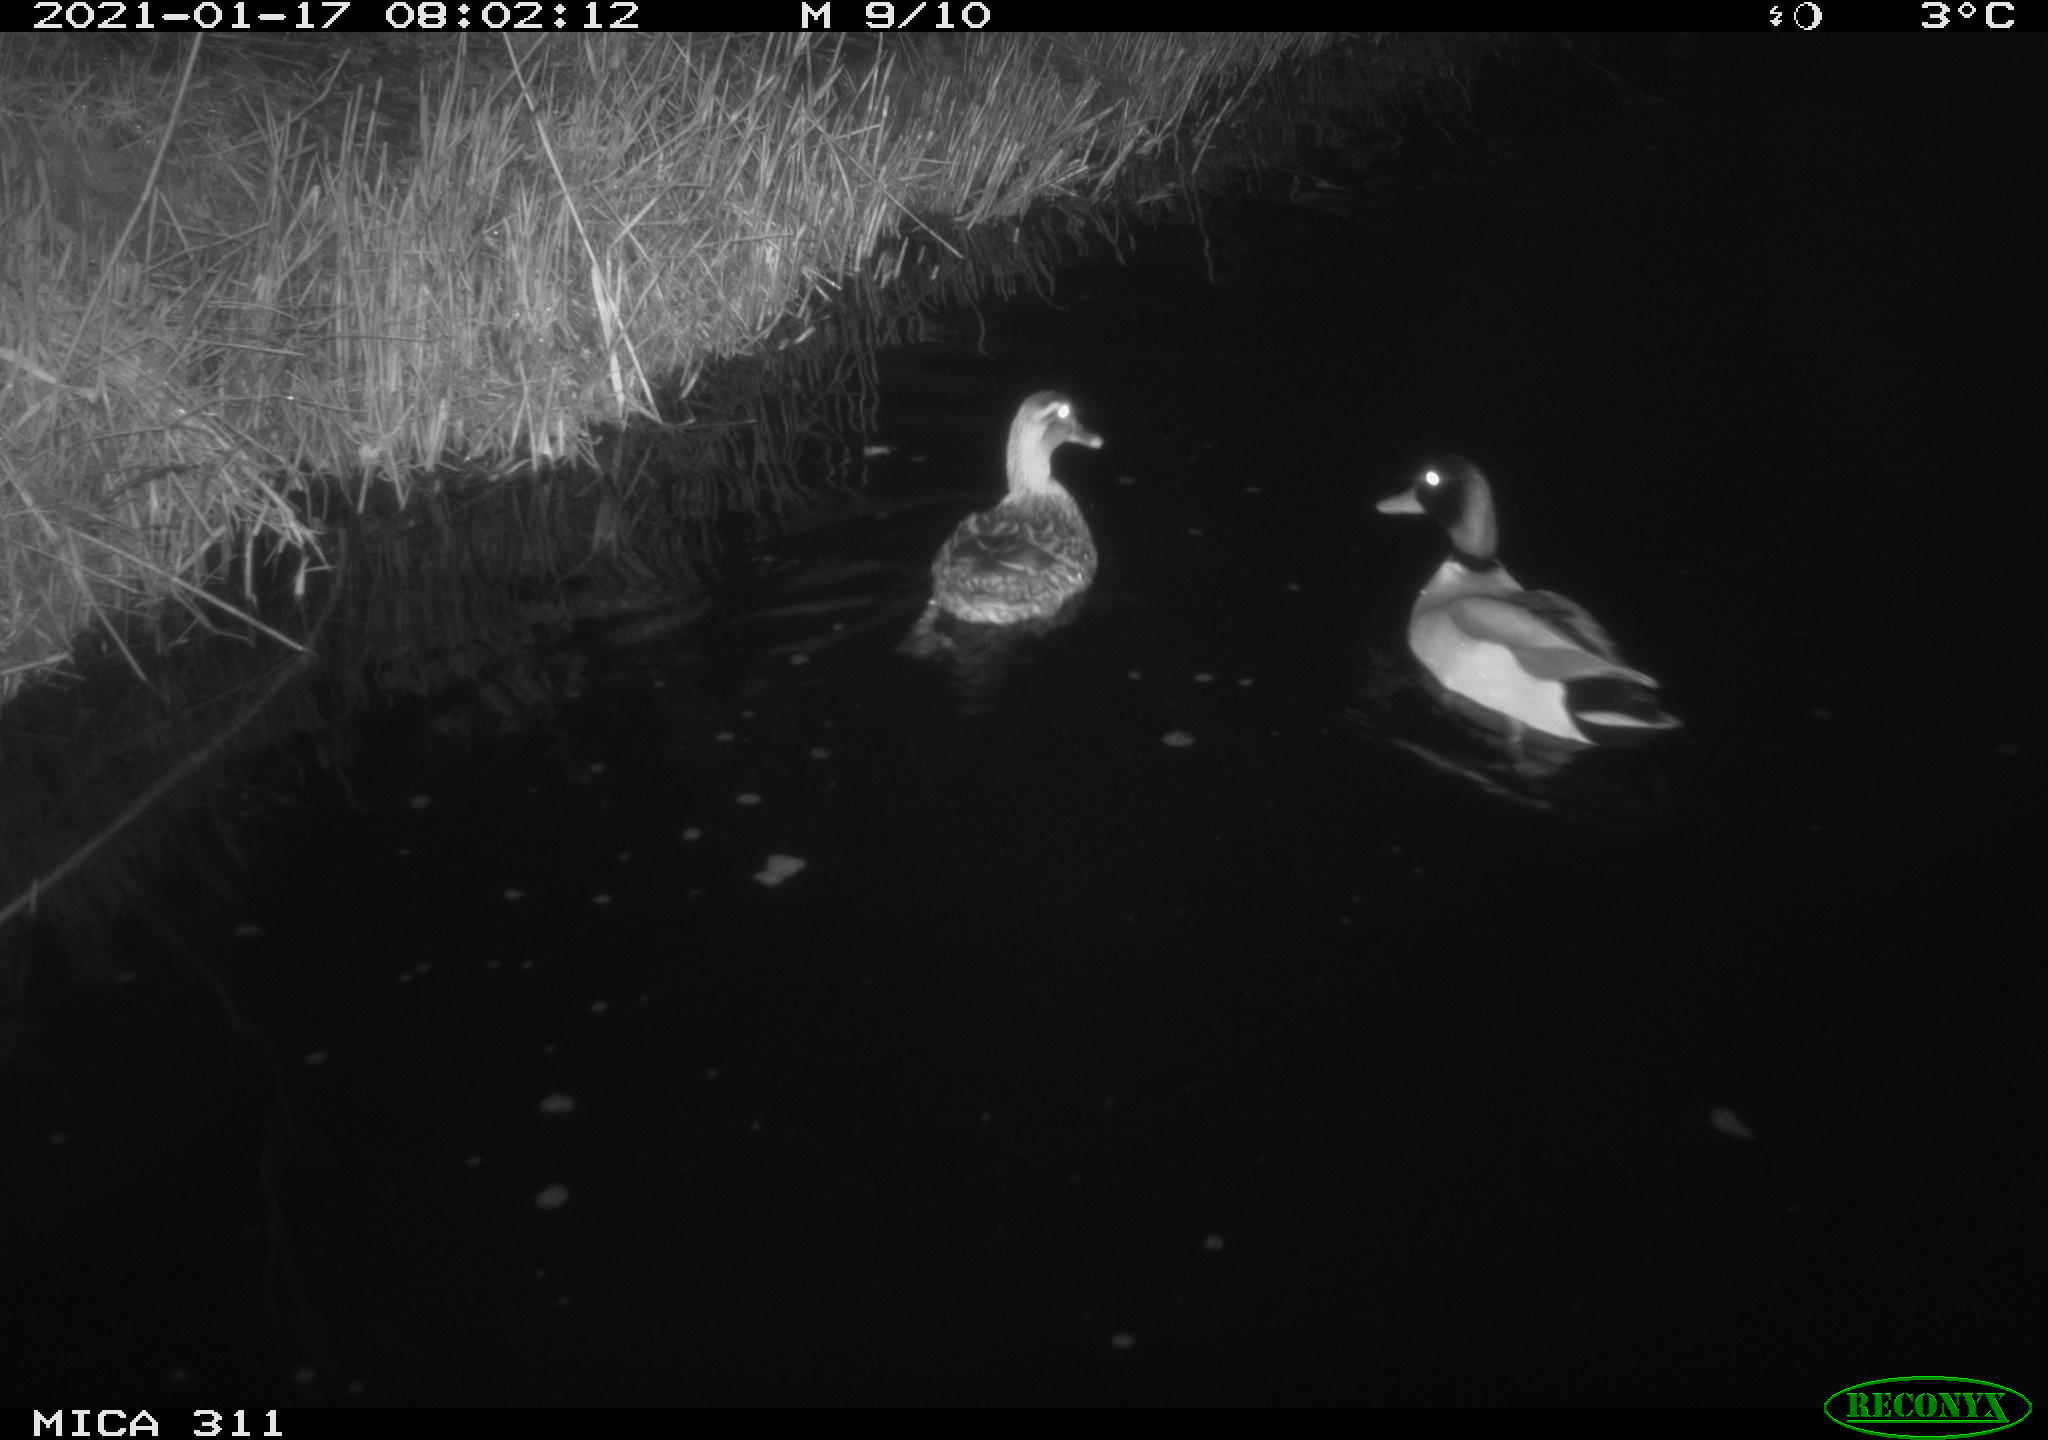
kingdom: Animalia
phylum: Chordata
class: Aves
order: Anseriformes
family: Anatidae
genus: Anas
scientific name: Anas
